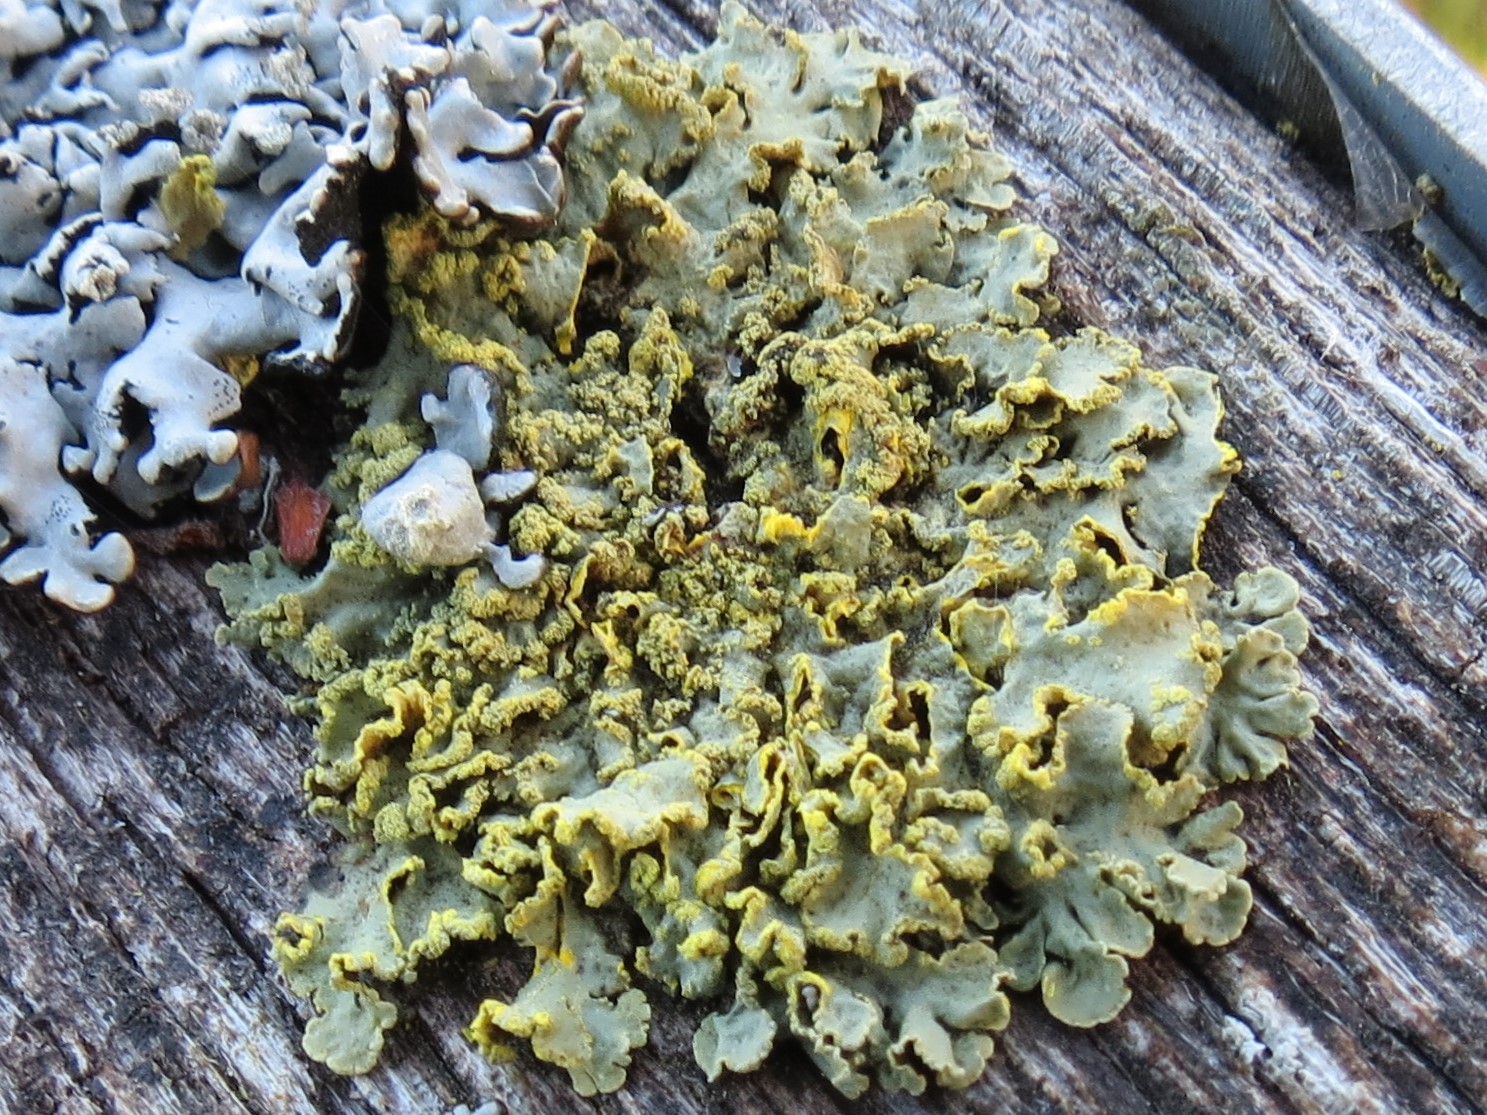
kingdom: Fungi
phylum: Ascomycota
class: Lecanoromycetes
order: Lecanorales
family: Parmeliaceae
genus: Vulpicida
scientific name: Vulpicida pinastri
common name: gul kruslav
